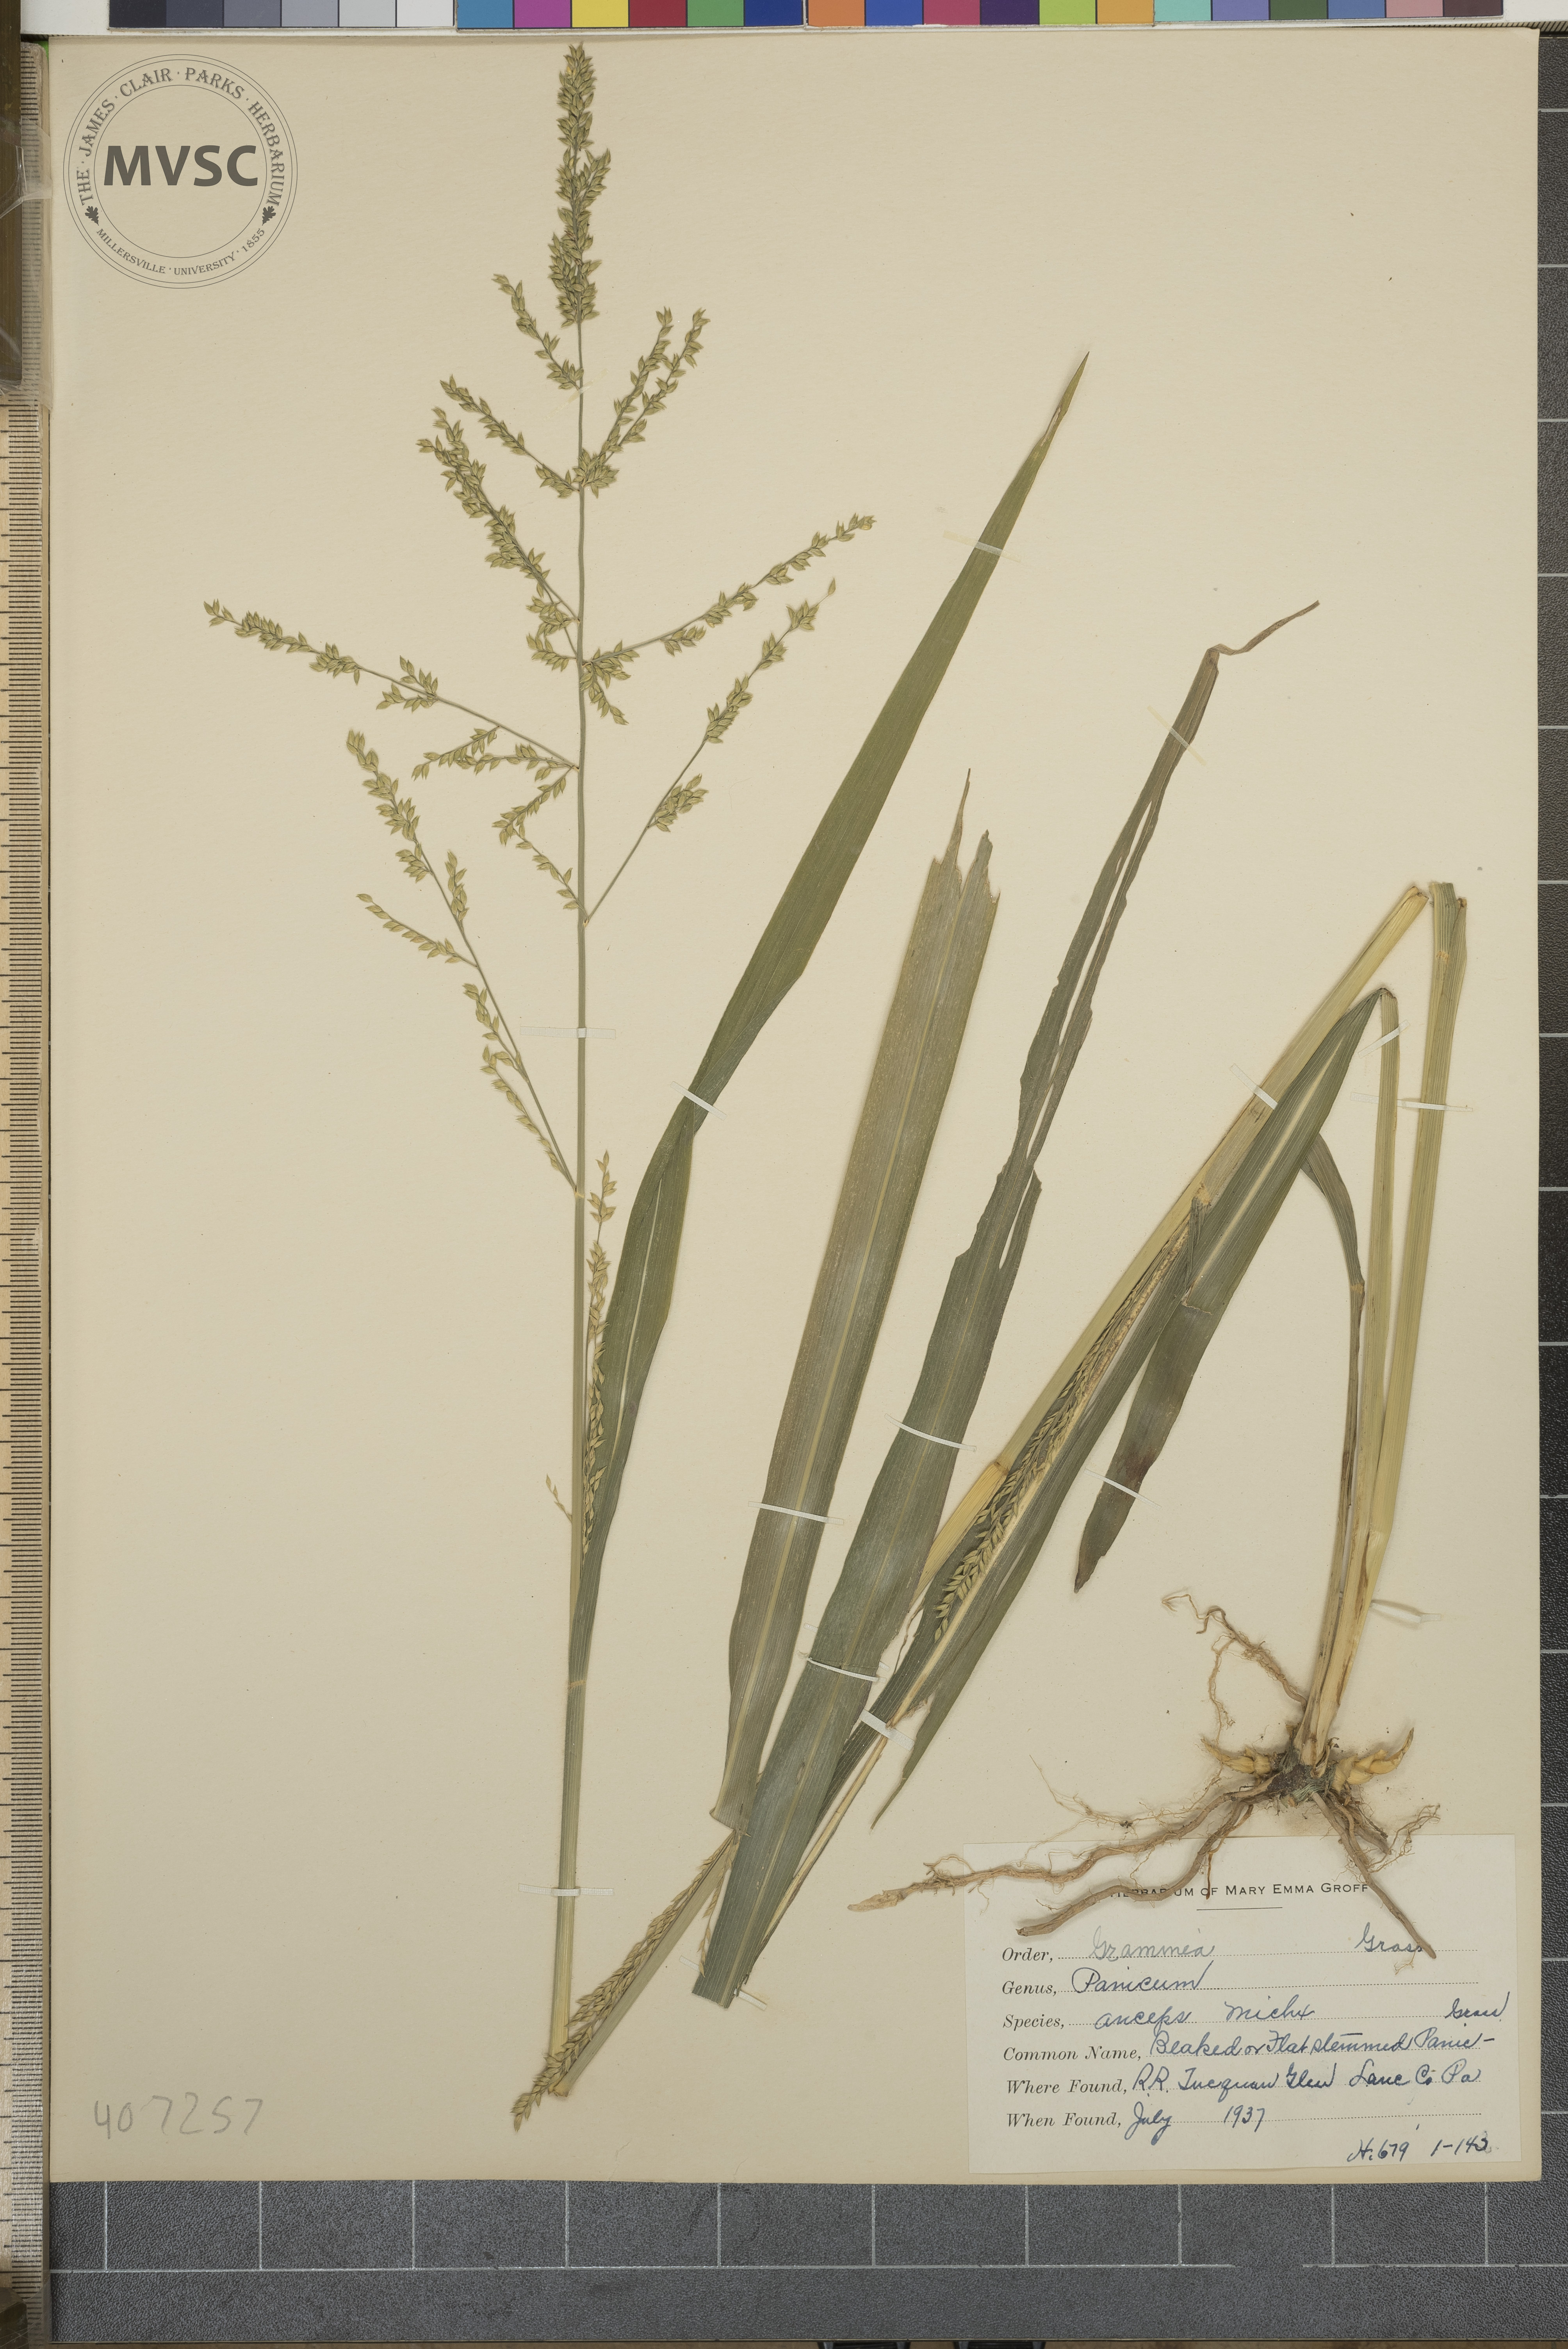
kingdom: Plantae
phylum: Tracheophyta
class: Liliopsida
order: Poales
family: Poaceae
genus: Coleataenia
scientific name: Coleataenia anceps
